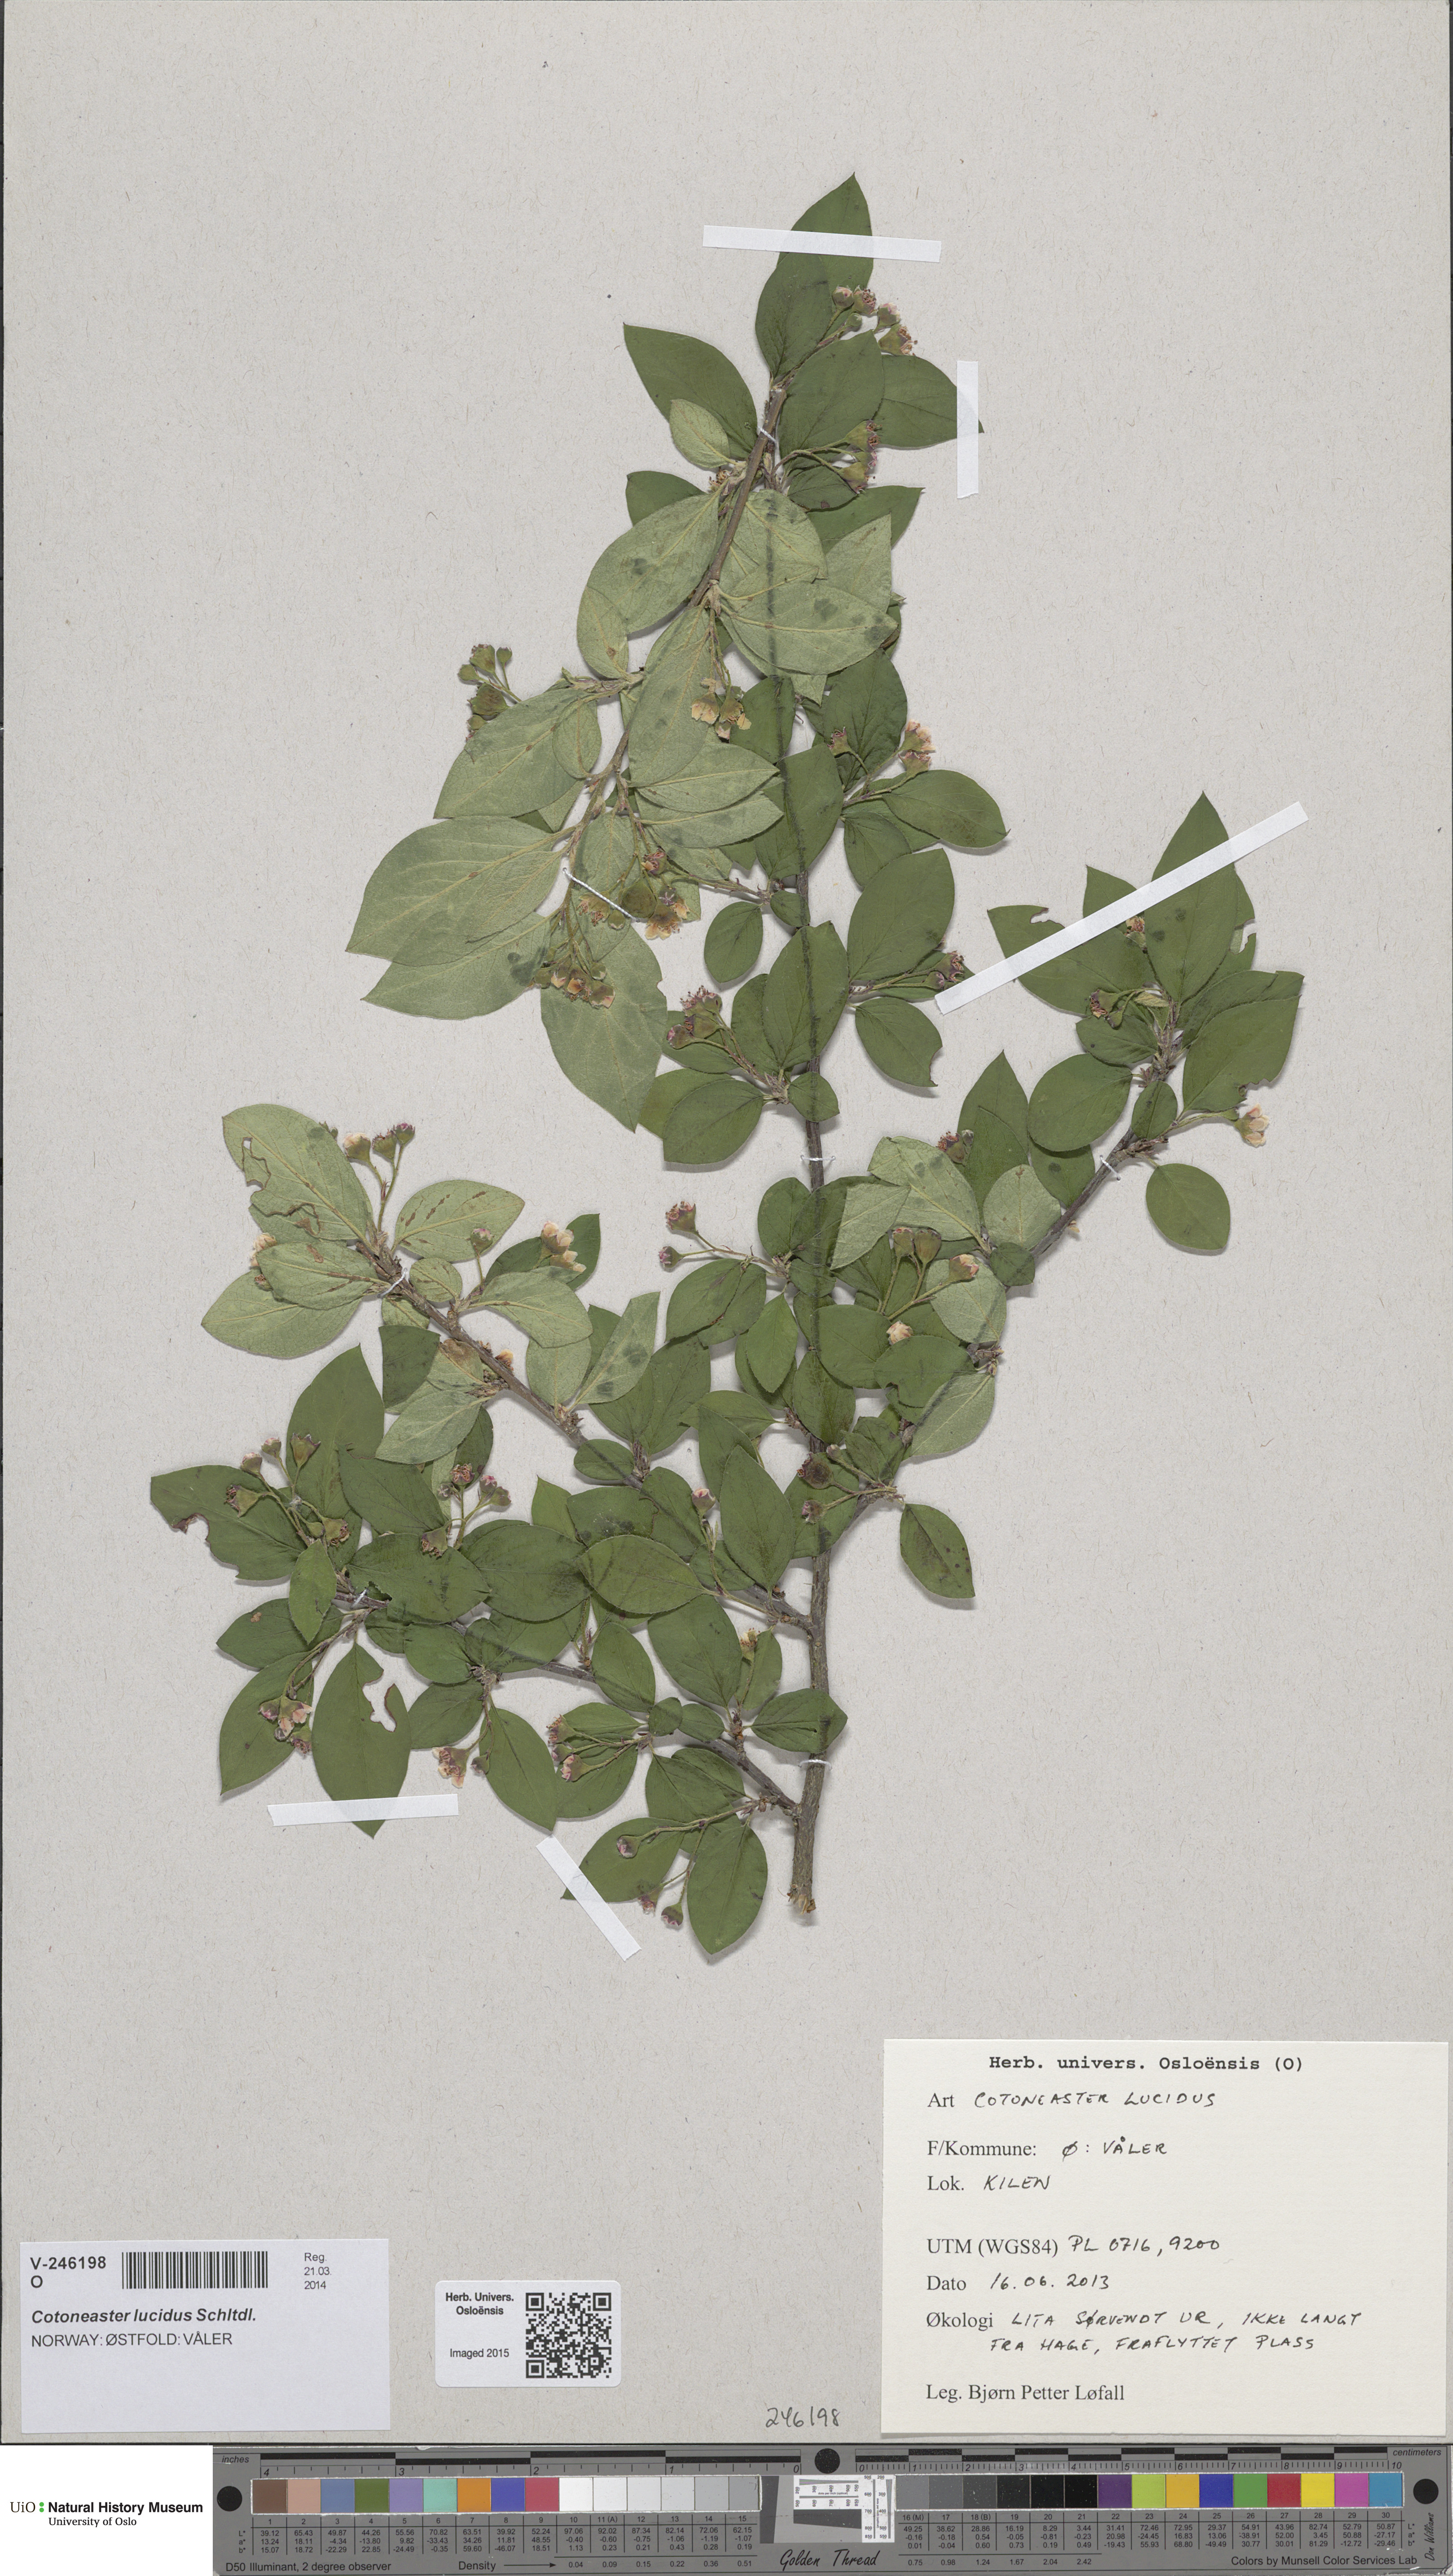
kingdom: Plantae
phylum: Tracheophyta
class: Magnoliopsida
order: Rosales
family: Rosaceae
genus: Cotoneaster
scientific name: Cotoneaster acutifolius
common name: Peking cotoneaster
